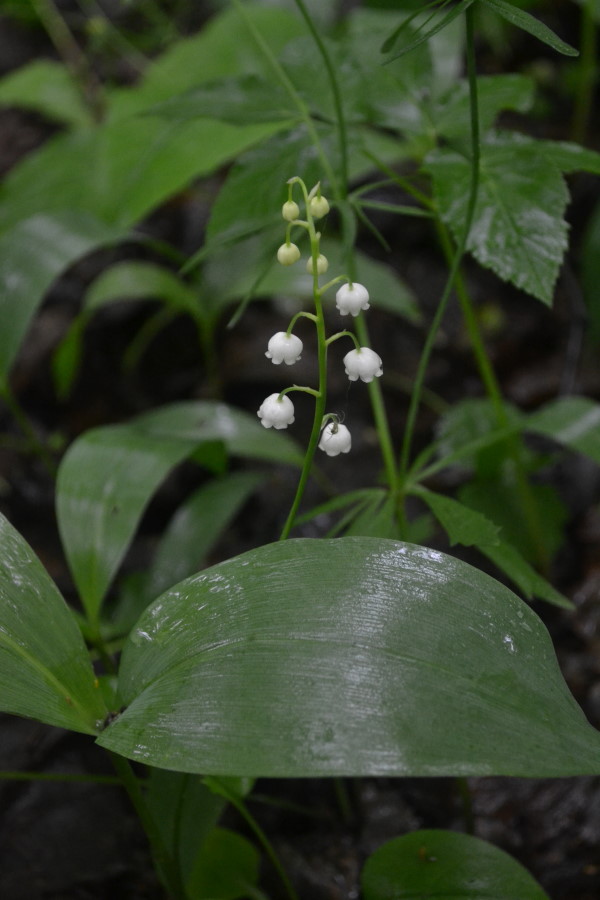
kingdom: Plantae
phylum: Tracheophyta
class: Liliopsida
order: Asparagales
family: Asparagaceae
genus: Convallaria
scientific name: Convallaria majalis
